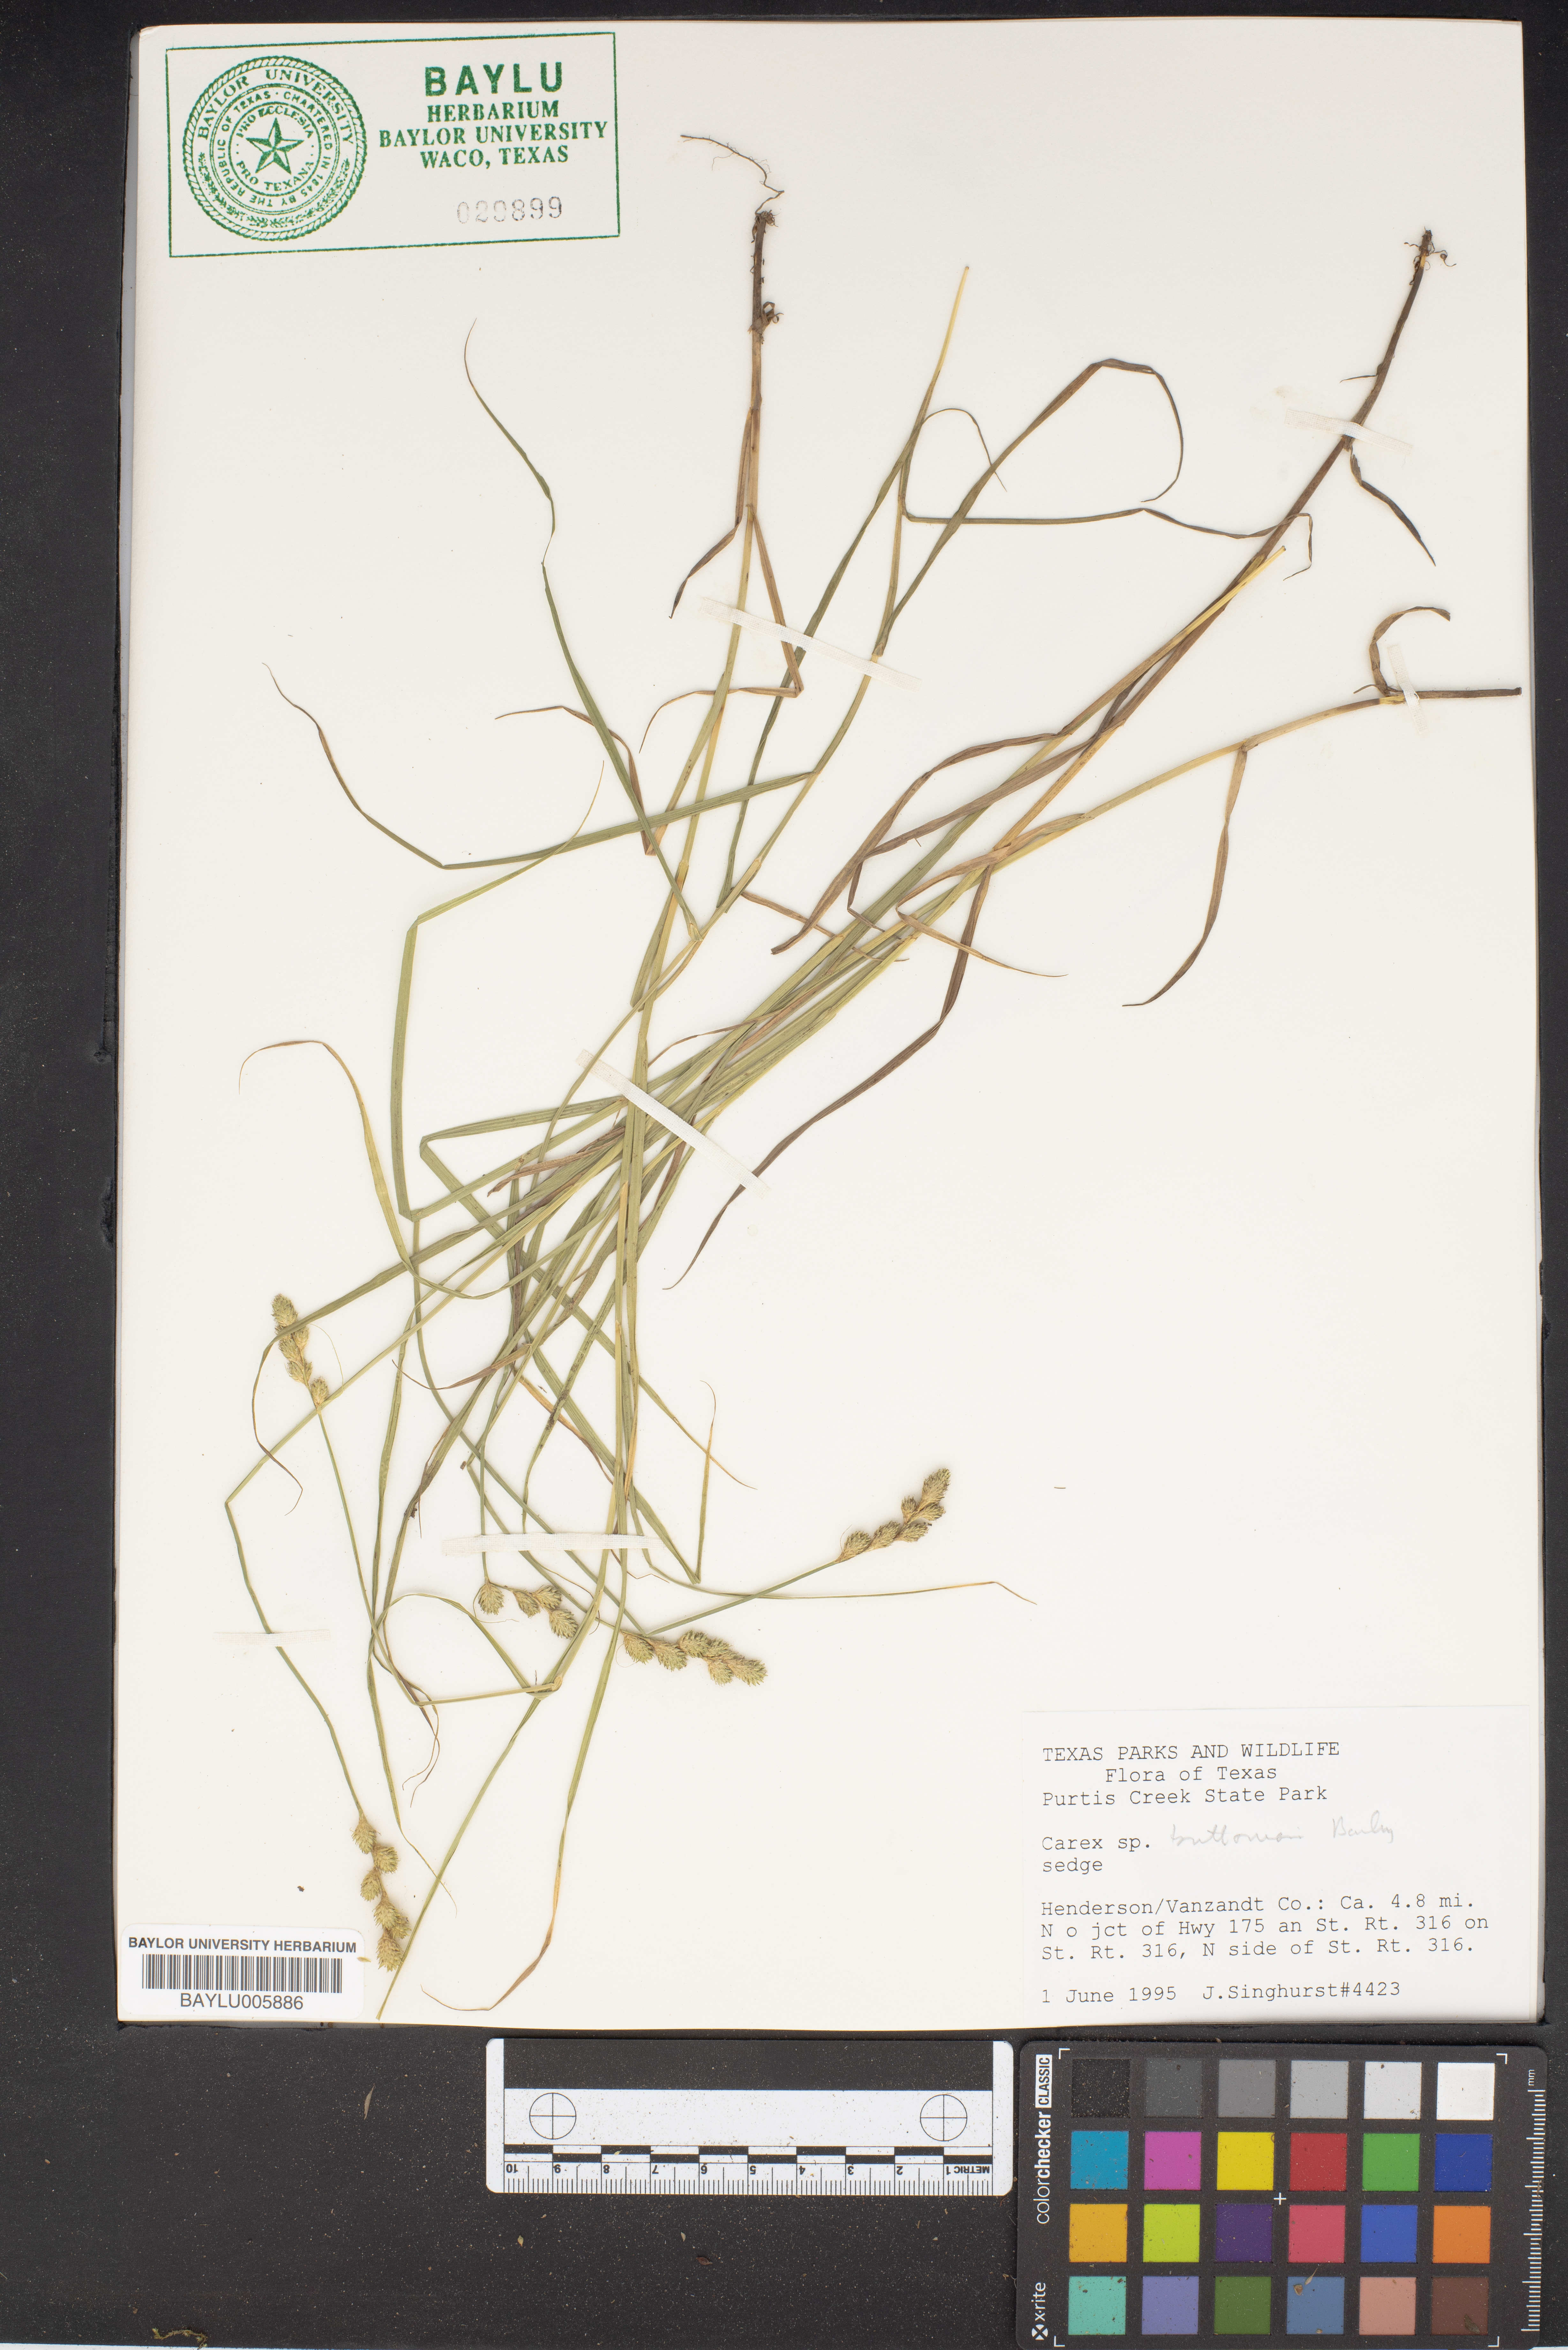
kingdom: Plantae
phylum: Tracheophyta
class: Liliopsida
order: Poales
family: Cyperaceae
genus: Carex
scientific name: Carex
